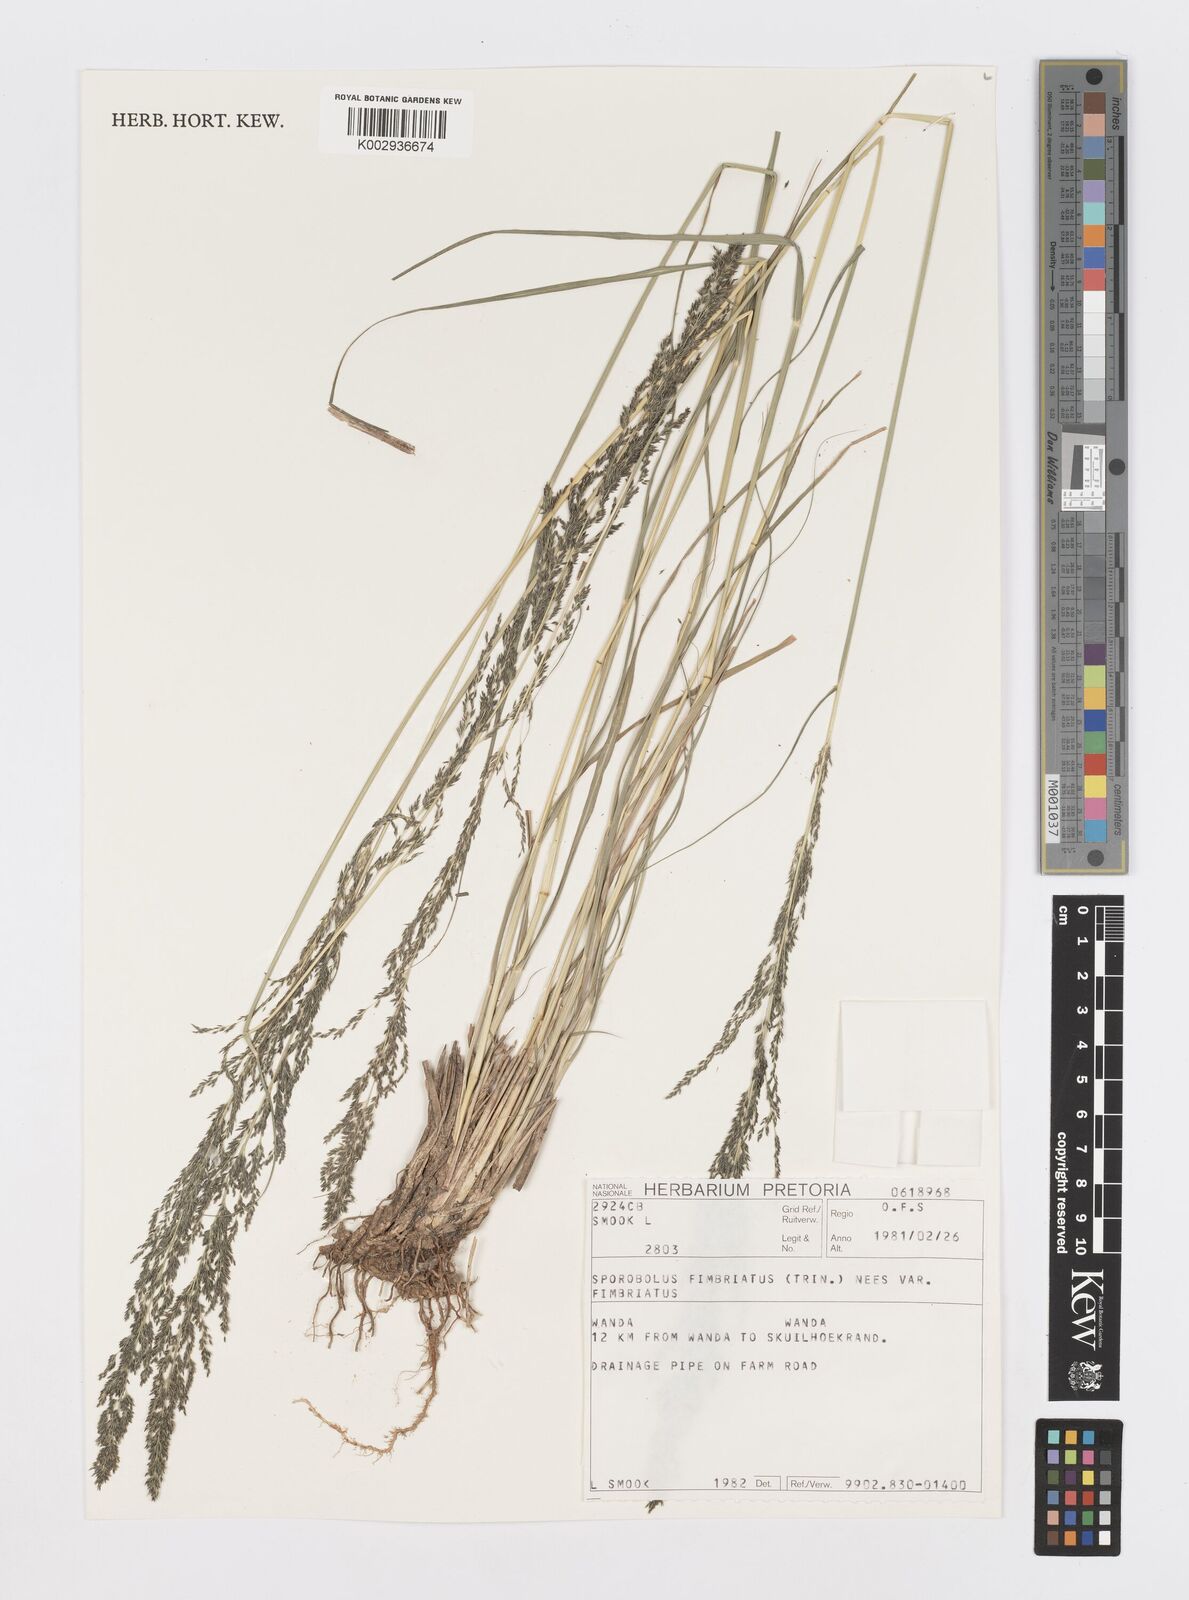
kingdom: Plantae
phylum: Tracheophyta
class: Liliopsida
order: Poales
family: Poaceae
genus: Sporobolus
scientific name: Sporobolus fimbriatus
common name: Fringed dropseed
